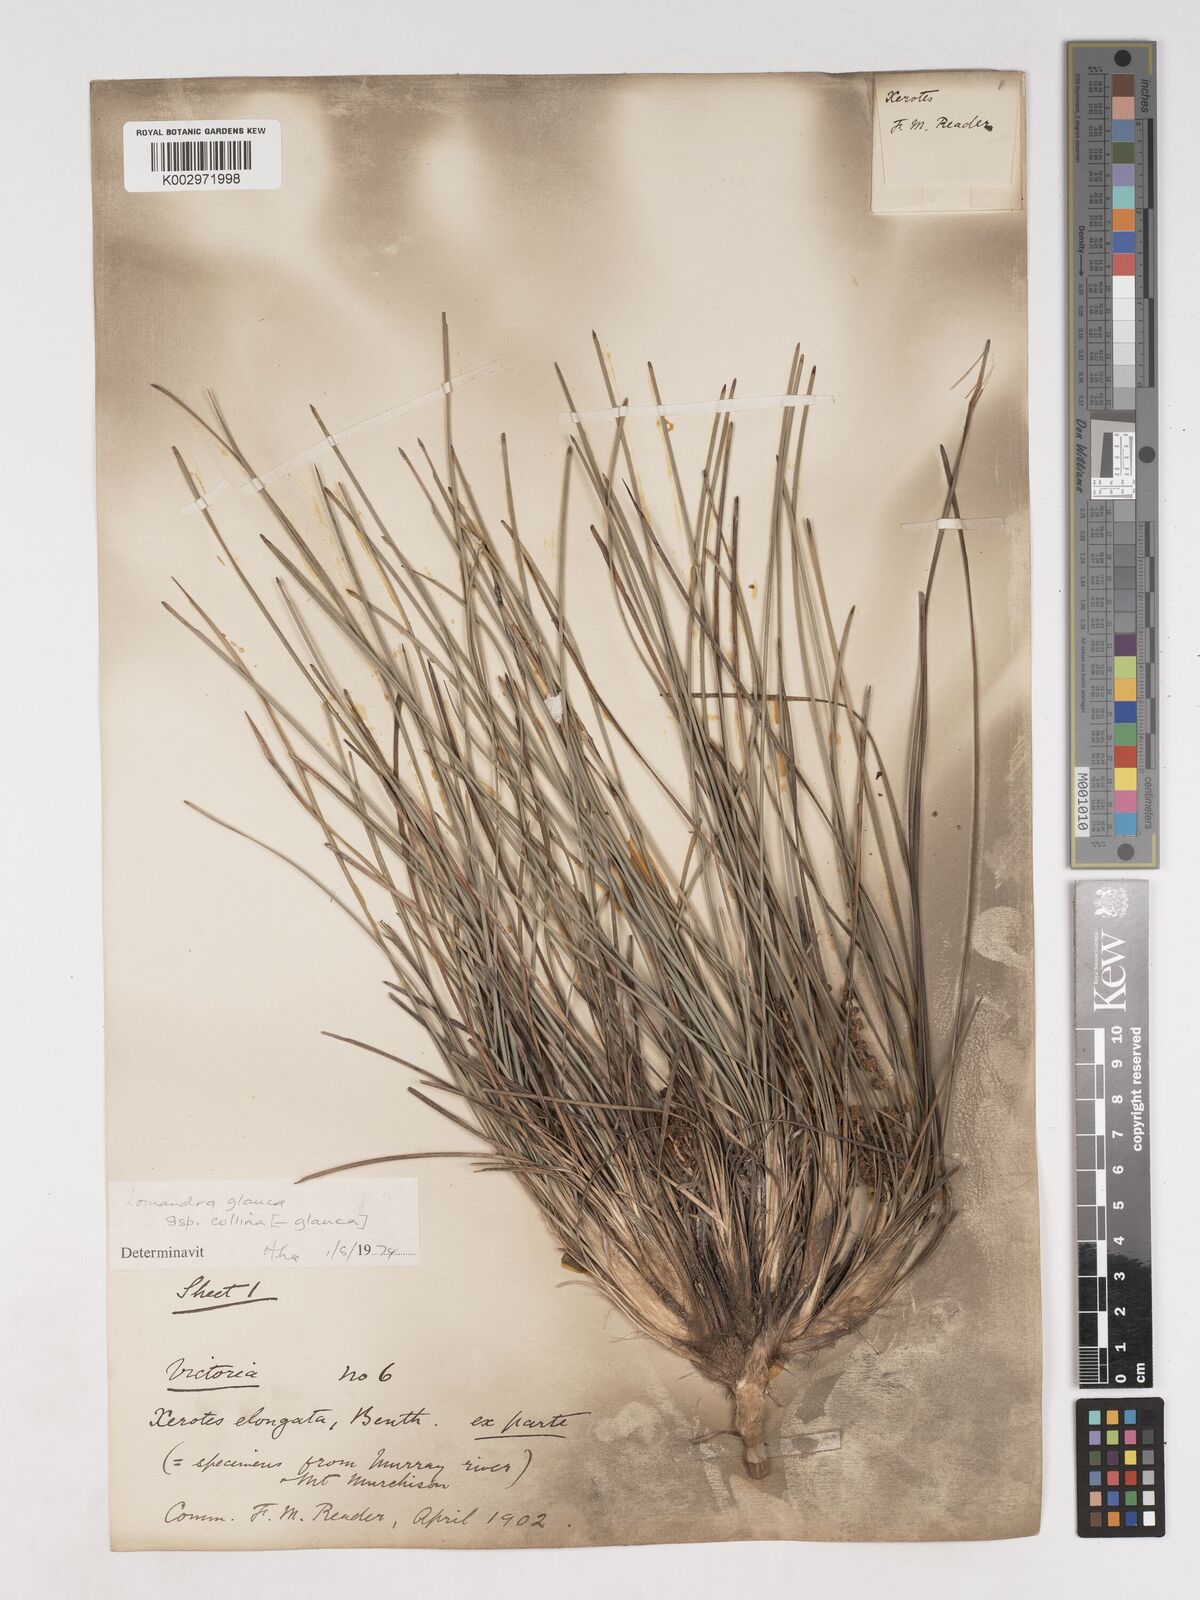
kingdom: Plantae
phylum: Tracheophyta
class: Liliopsida
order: Asparagales
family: Asparagaceae
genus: Lomandra
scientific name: Lomandra elongata
